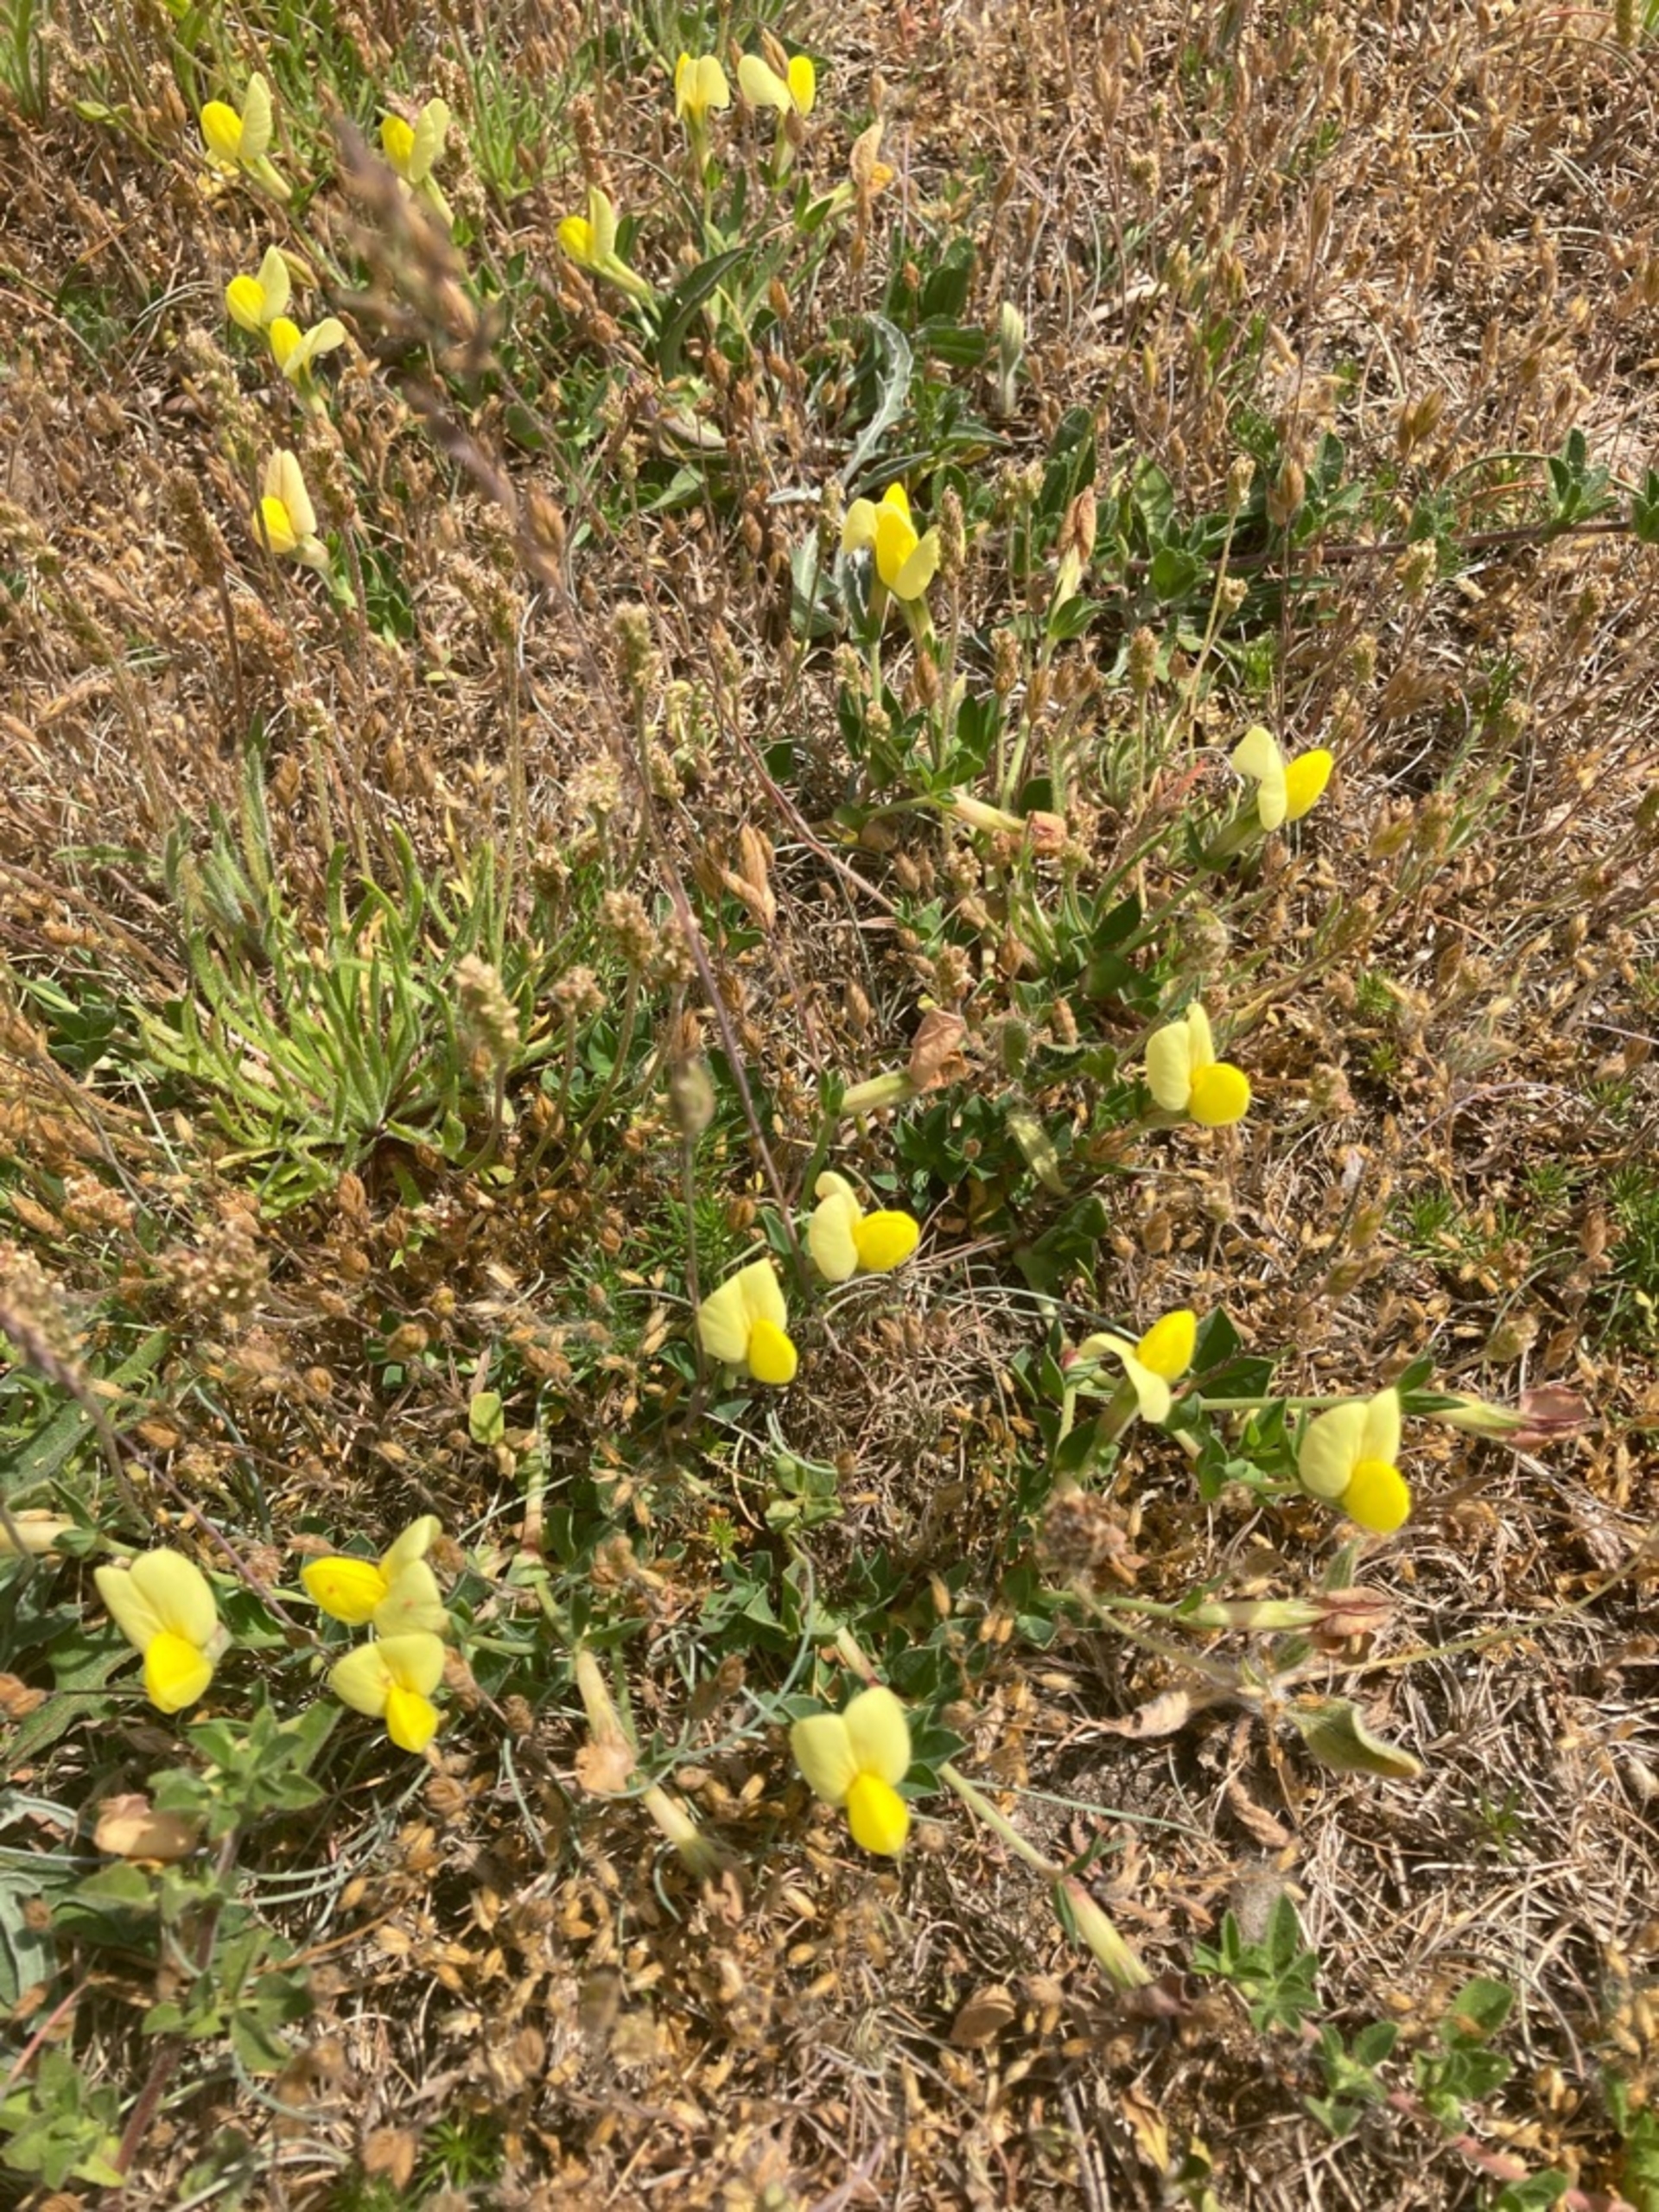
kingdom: Plantae
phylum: Tracheophyta
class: Magnoliopsida
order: Fabales
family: Fabaceae
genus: Lotus
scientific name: Lotus maritimus
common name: Kantbælg
